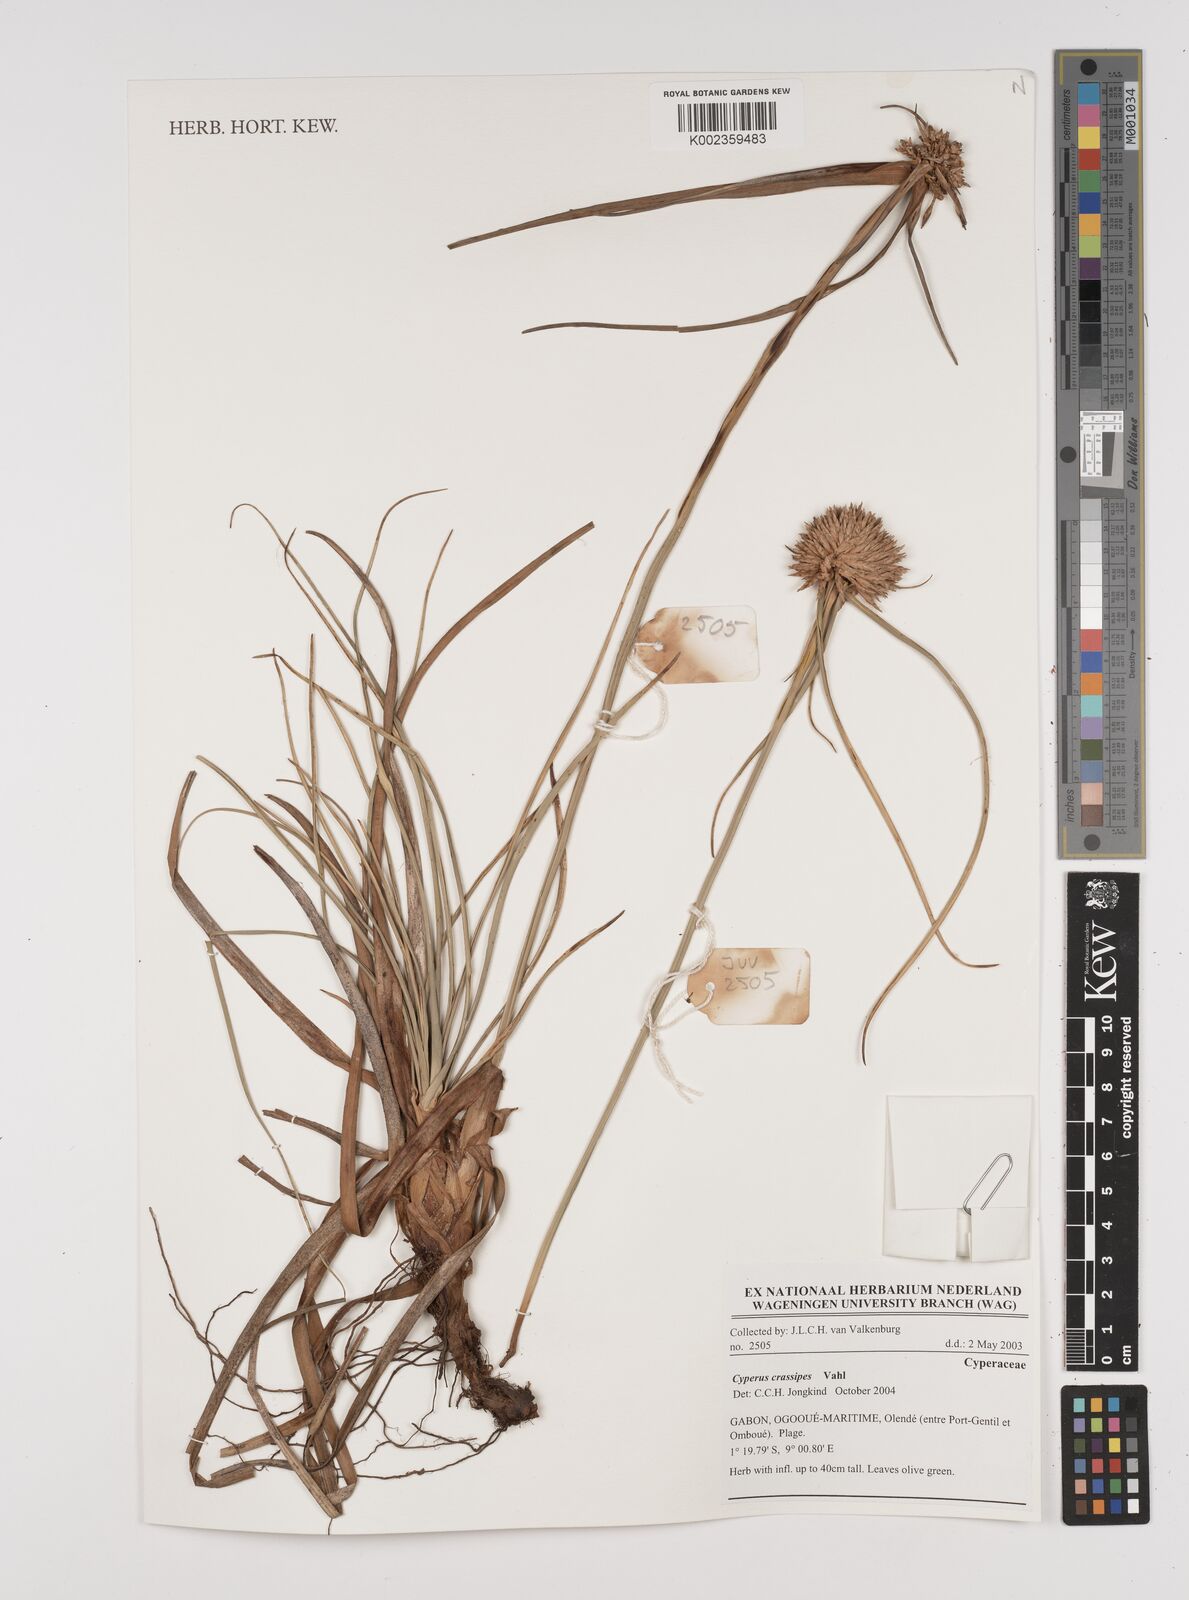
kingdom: Plantae
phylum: Tracheophyta
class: Liliopsida
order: Poales
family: Cyperaceae
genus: Cyperus
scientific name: Cyperus crassipes
